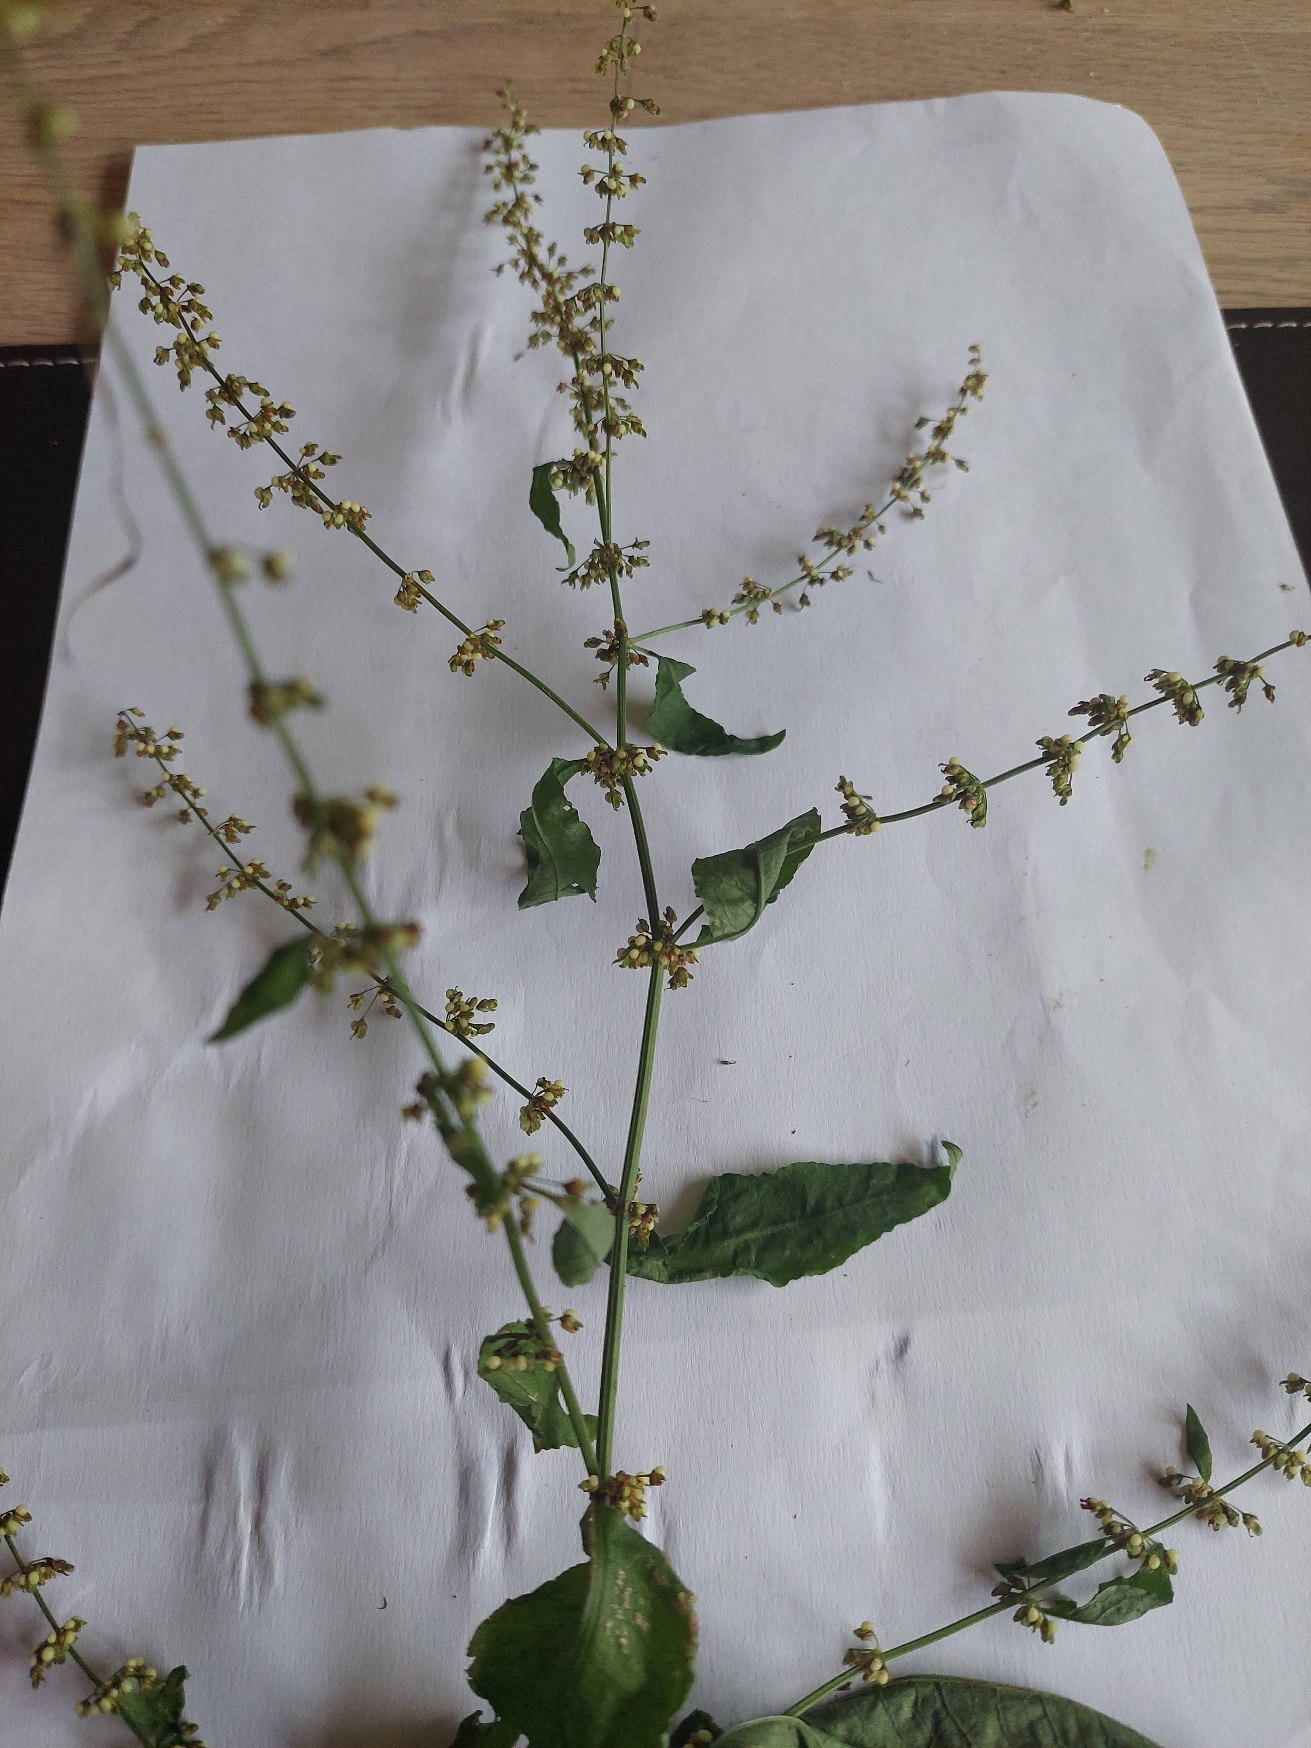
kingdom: Plantae
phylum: Tracheophyta
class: Magnoliopsida
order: Caryophyllales
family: Polygonaceae
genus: Rumex
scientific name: Rumex sanguineus
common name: Skov-skræppe
